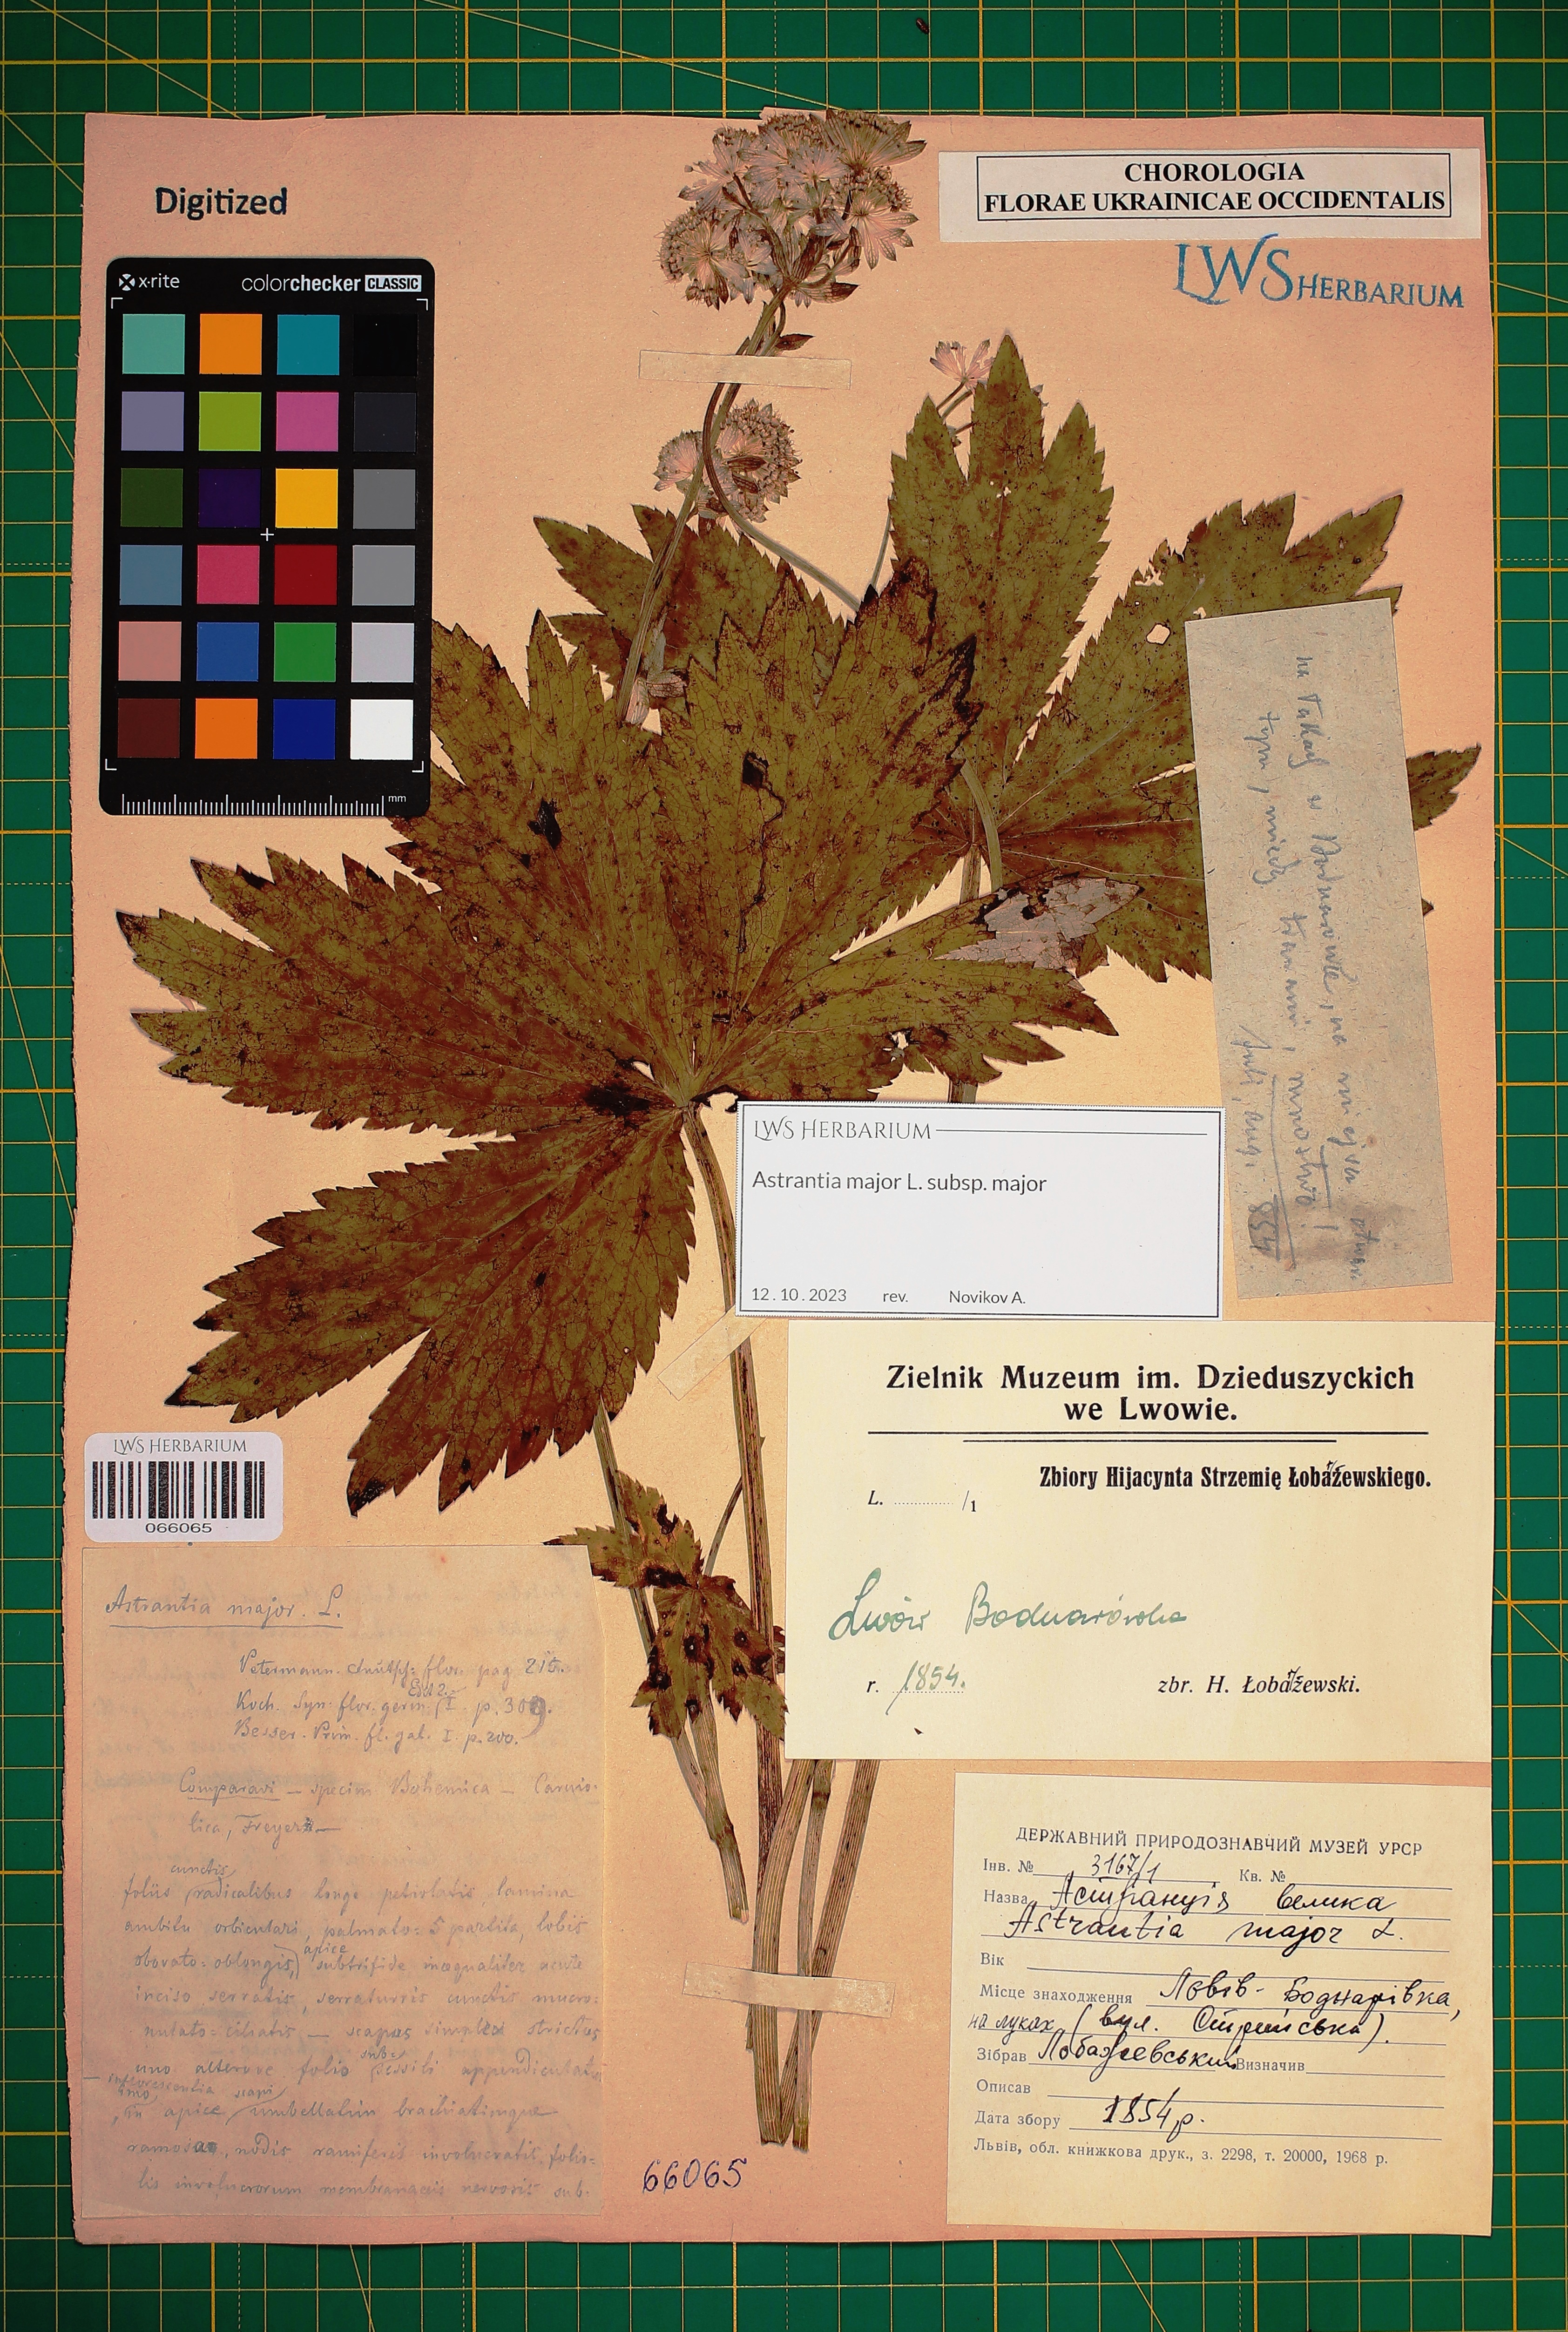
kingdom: Plantae
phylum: Tracheophyta
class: Magnoliopsida
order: Apiales
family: Apiaceae
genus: Astrantia
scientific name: Astrantia major
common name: Greater masterwort
